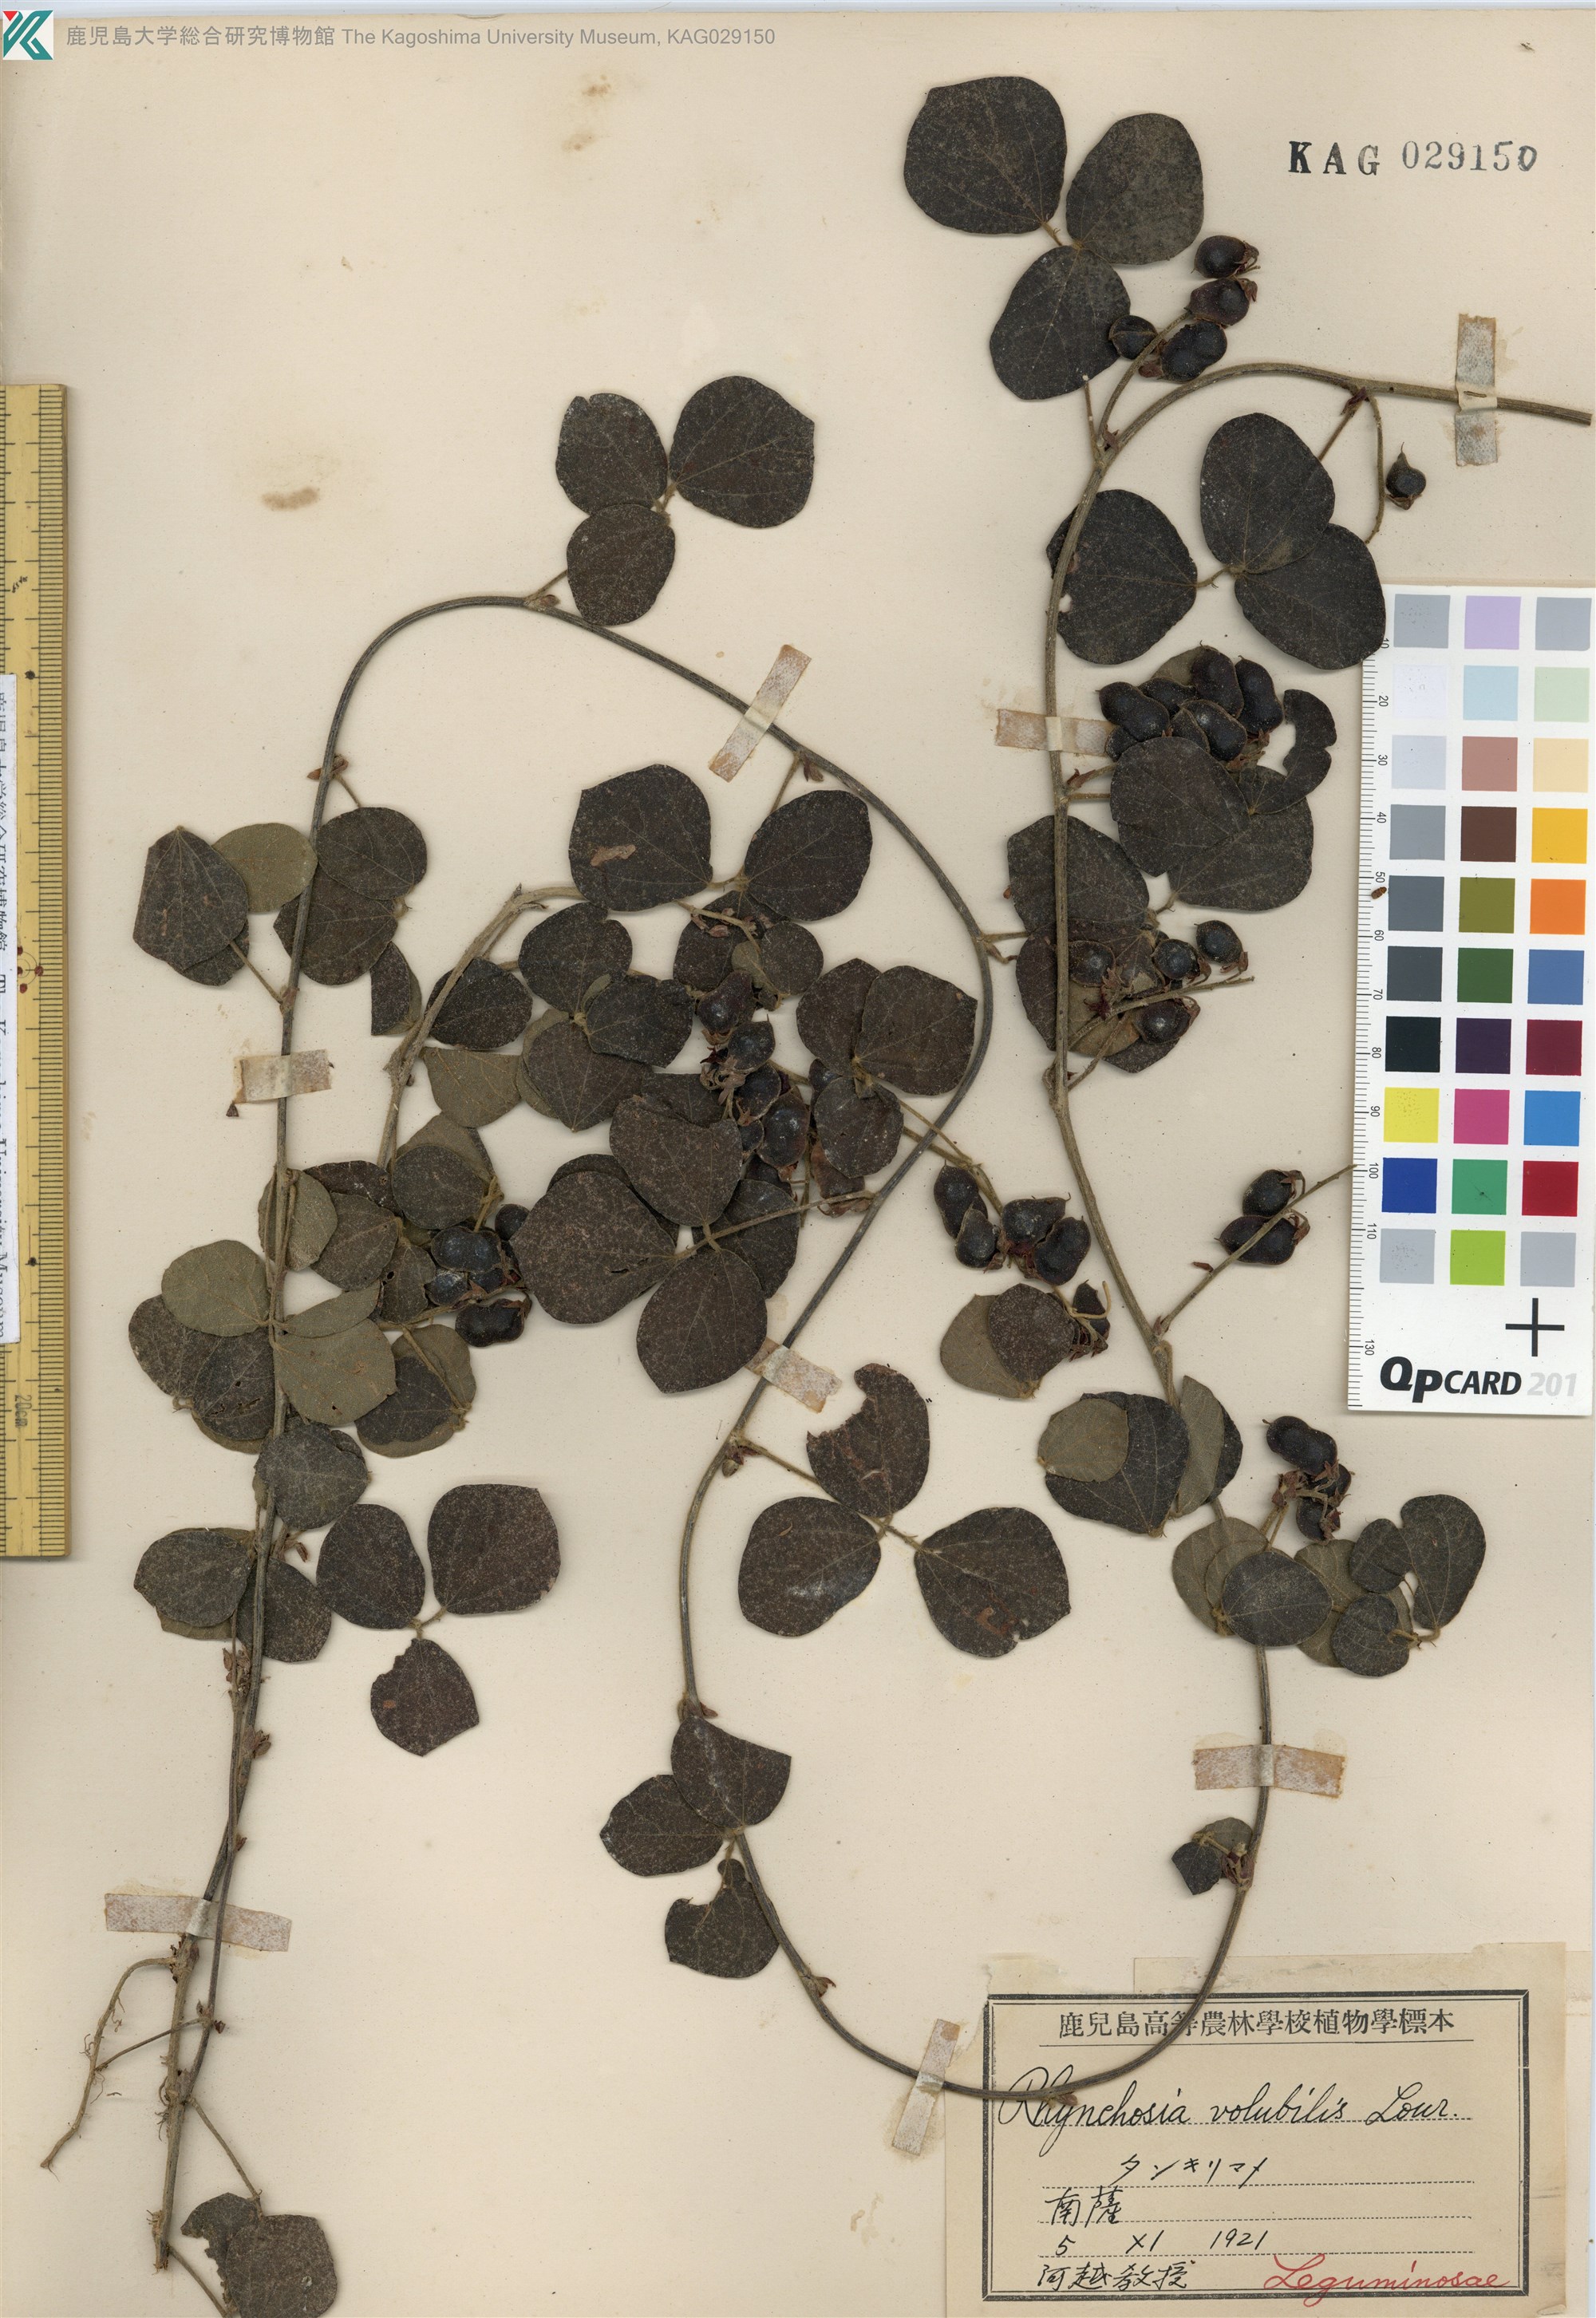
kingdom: Plantae
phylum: Tracheophyta
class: Magnoliopsida
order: Fabales
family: Fabaceae
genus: Rhynchosia
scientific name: Rhynchosia volubilis
